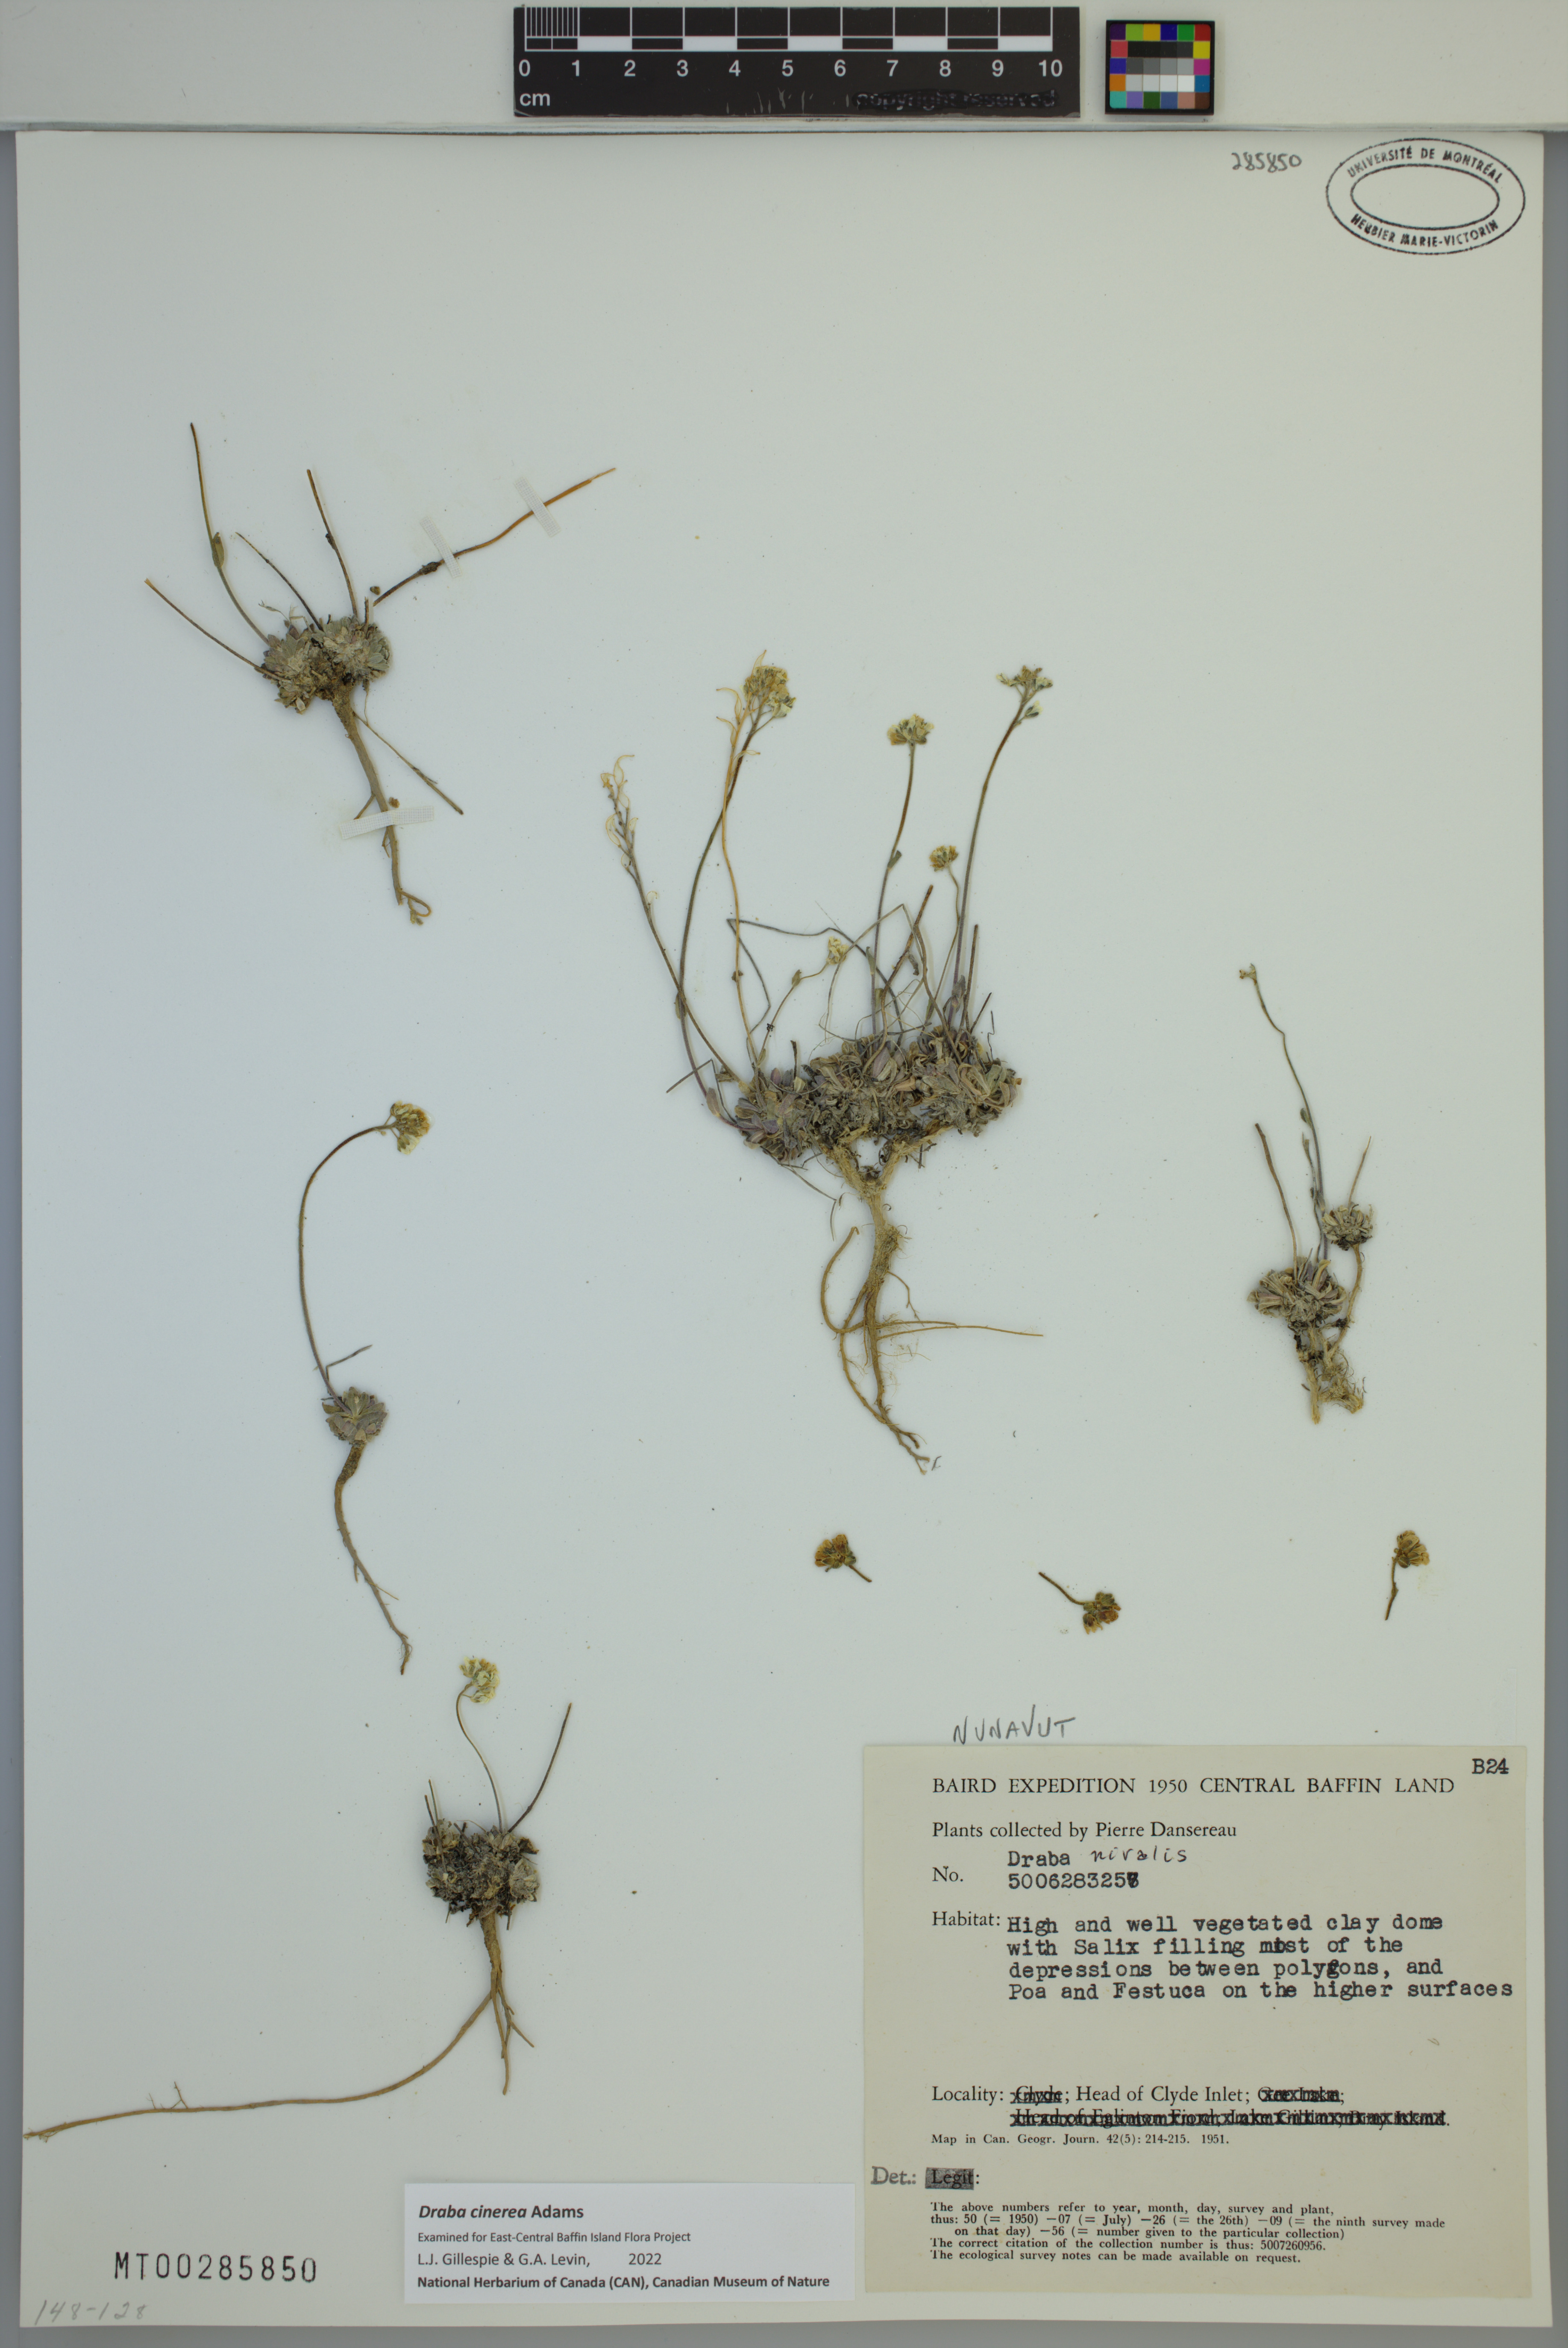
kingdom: Plantae
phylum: Tracheophyta
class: Magnoliopsida
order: Brassicales
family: Brassicaceae
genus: Draba
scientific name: Draba cinerea
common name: Ash-coloured whitlow-grass
